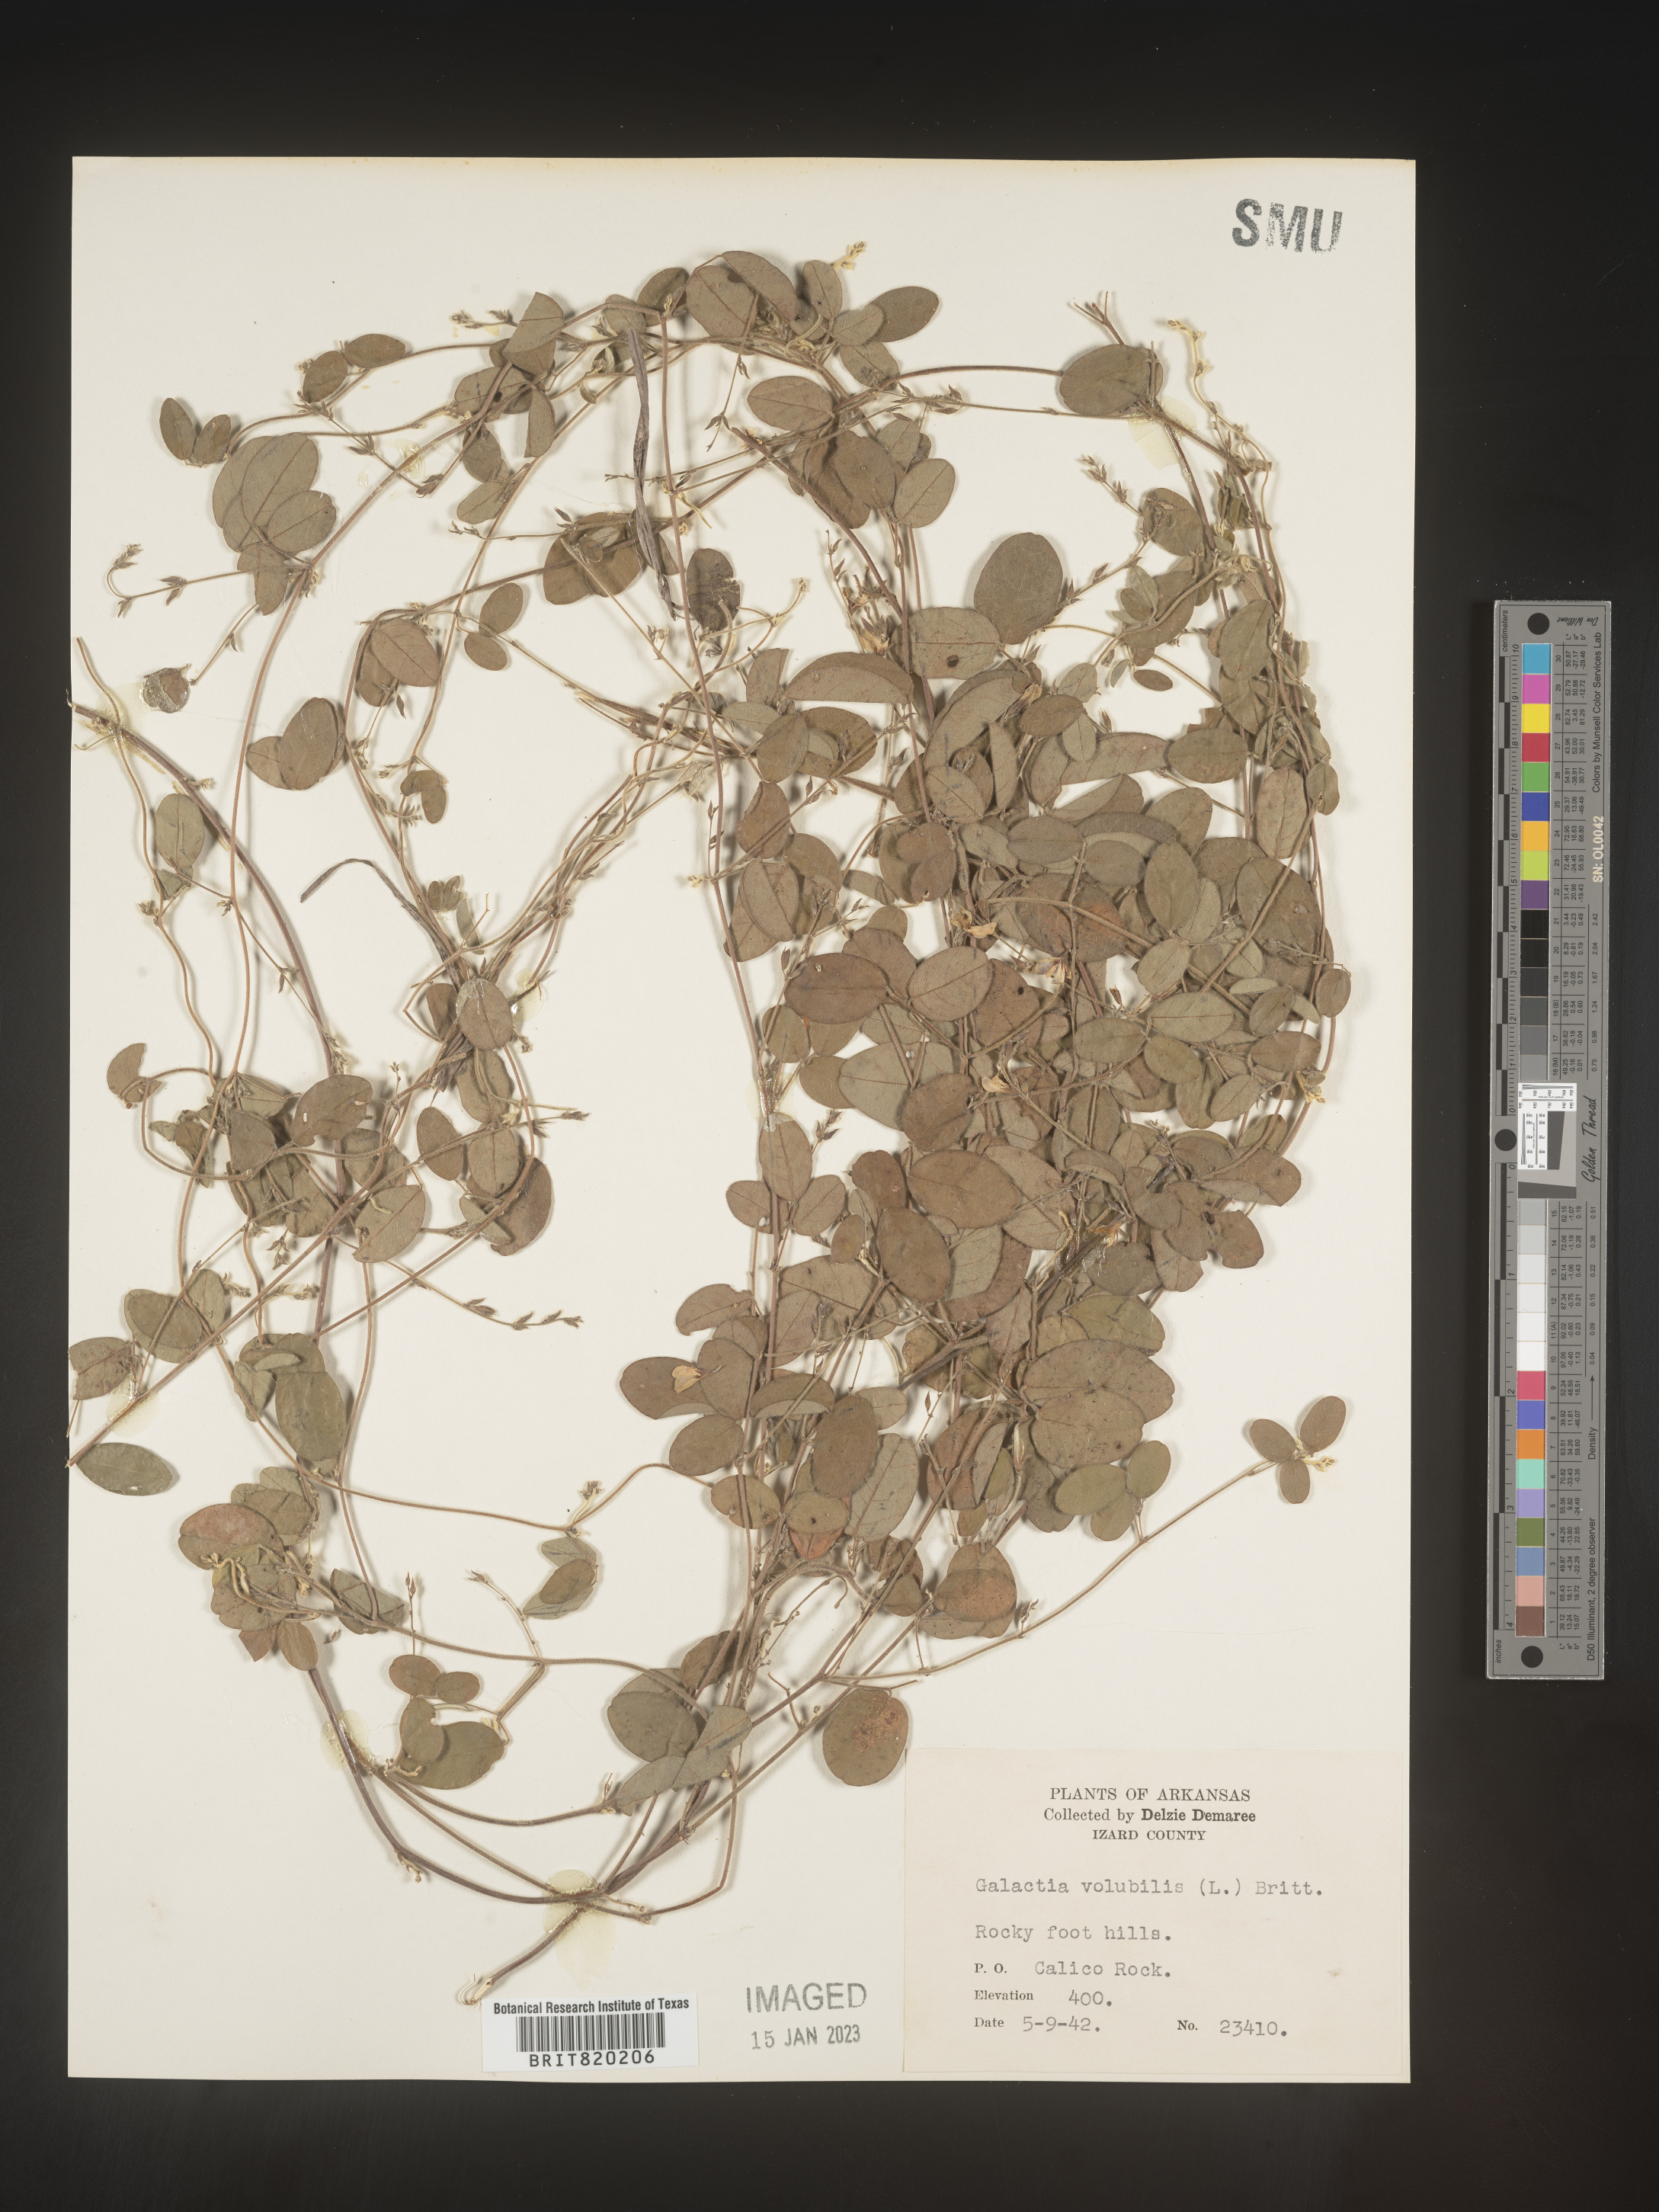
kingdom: Plantae
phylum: Tracheophyta
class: Magnoliopsida
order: Fabales
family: Fabaceae
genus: Galactia
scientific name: Galactia volubilis
